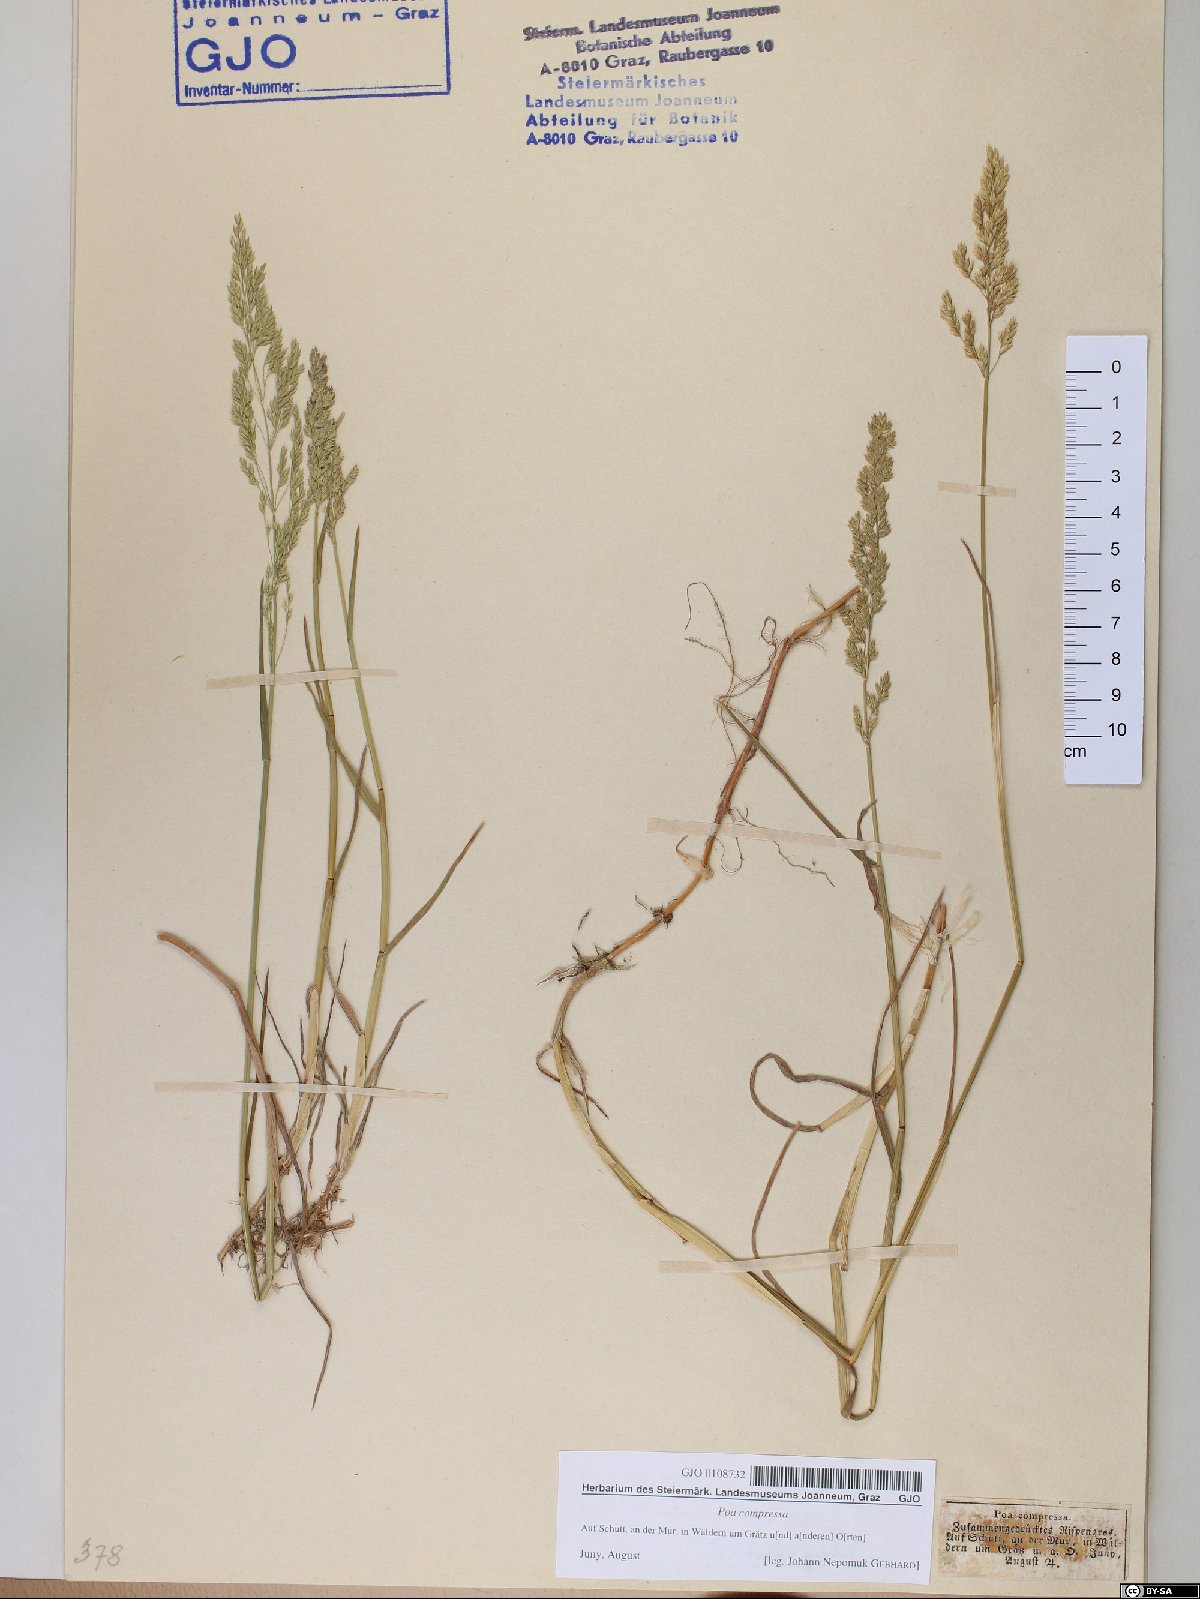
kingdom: Plantae
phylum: Tracheophyta
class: Liliopsida
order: Poales
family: Poaceae
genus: Poa
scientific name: Poa compressa
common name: Canada bluegrass
